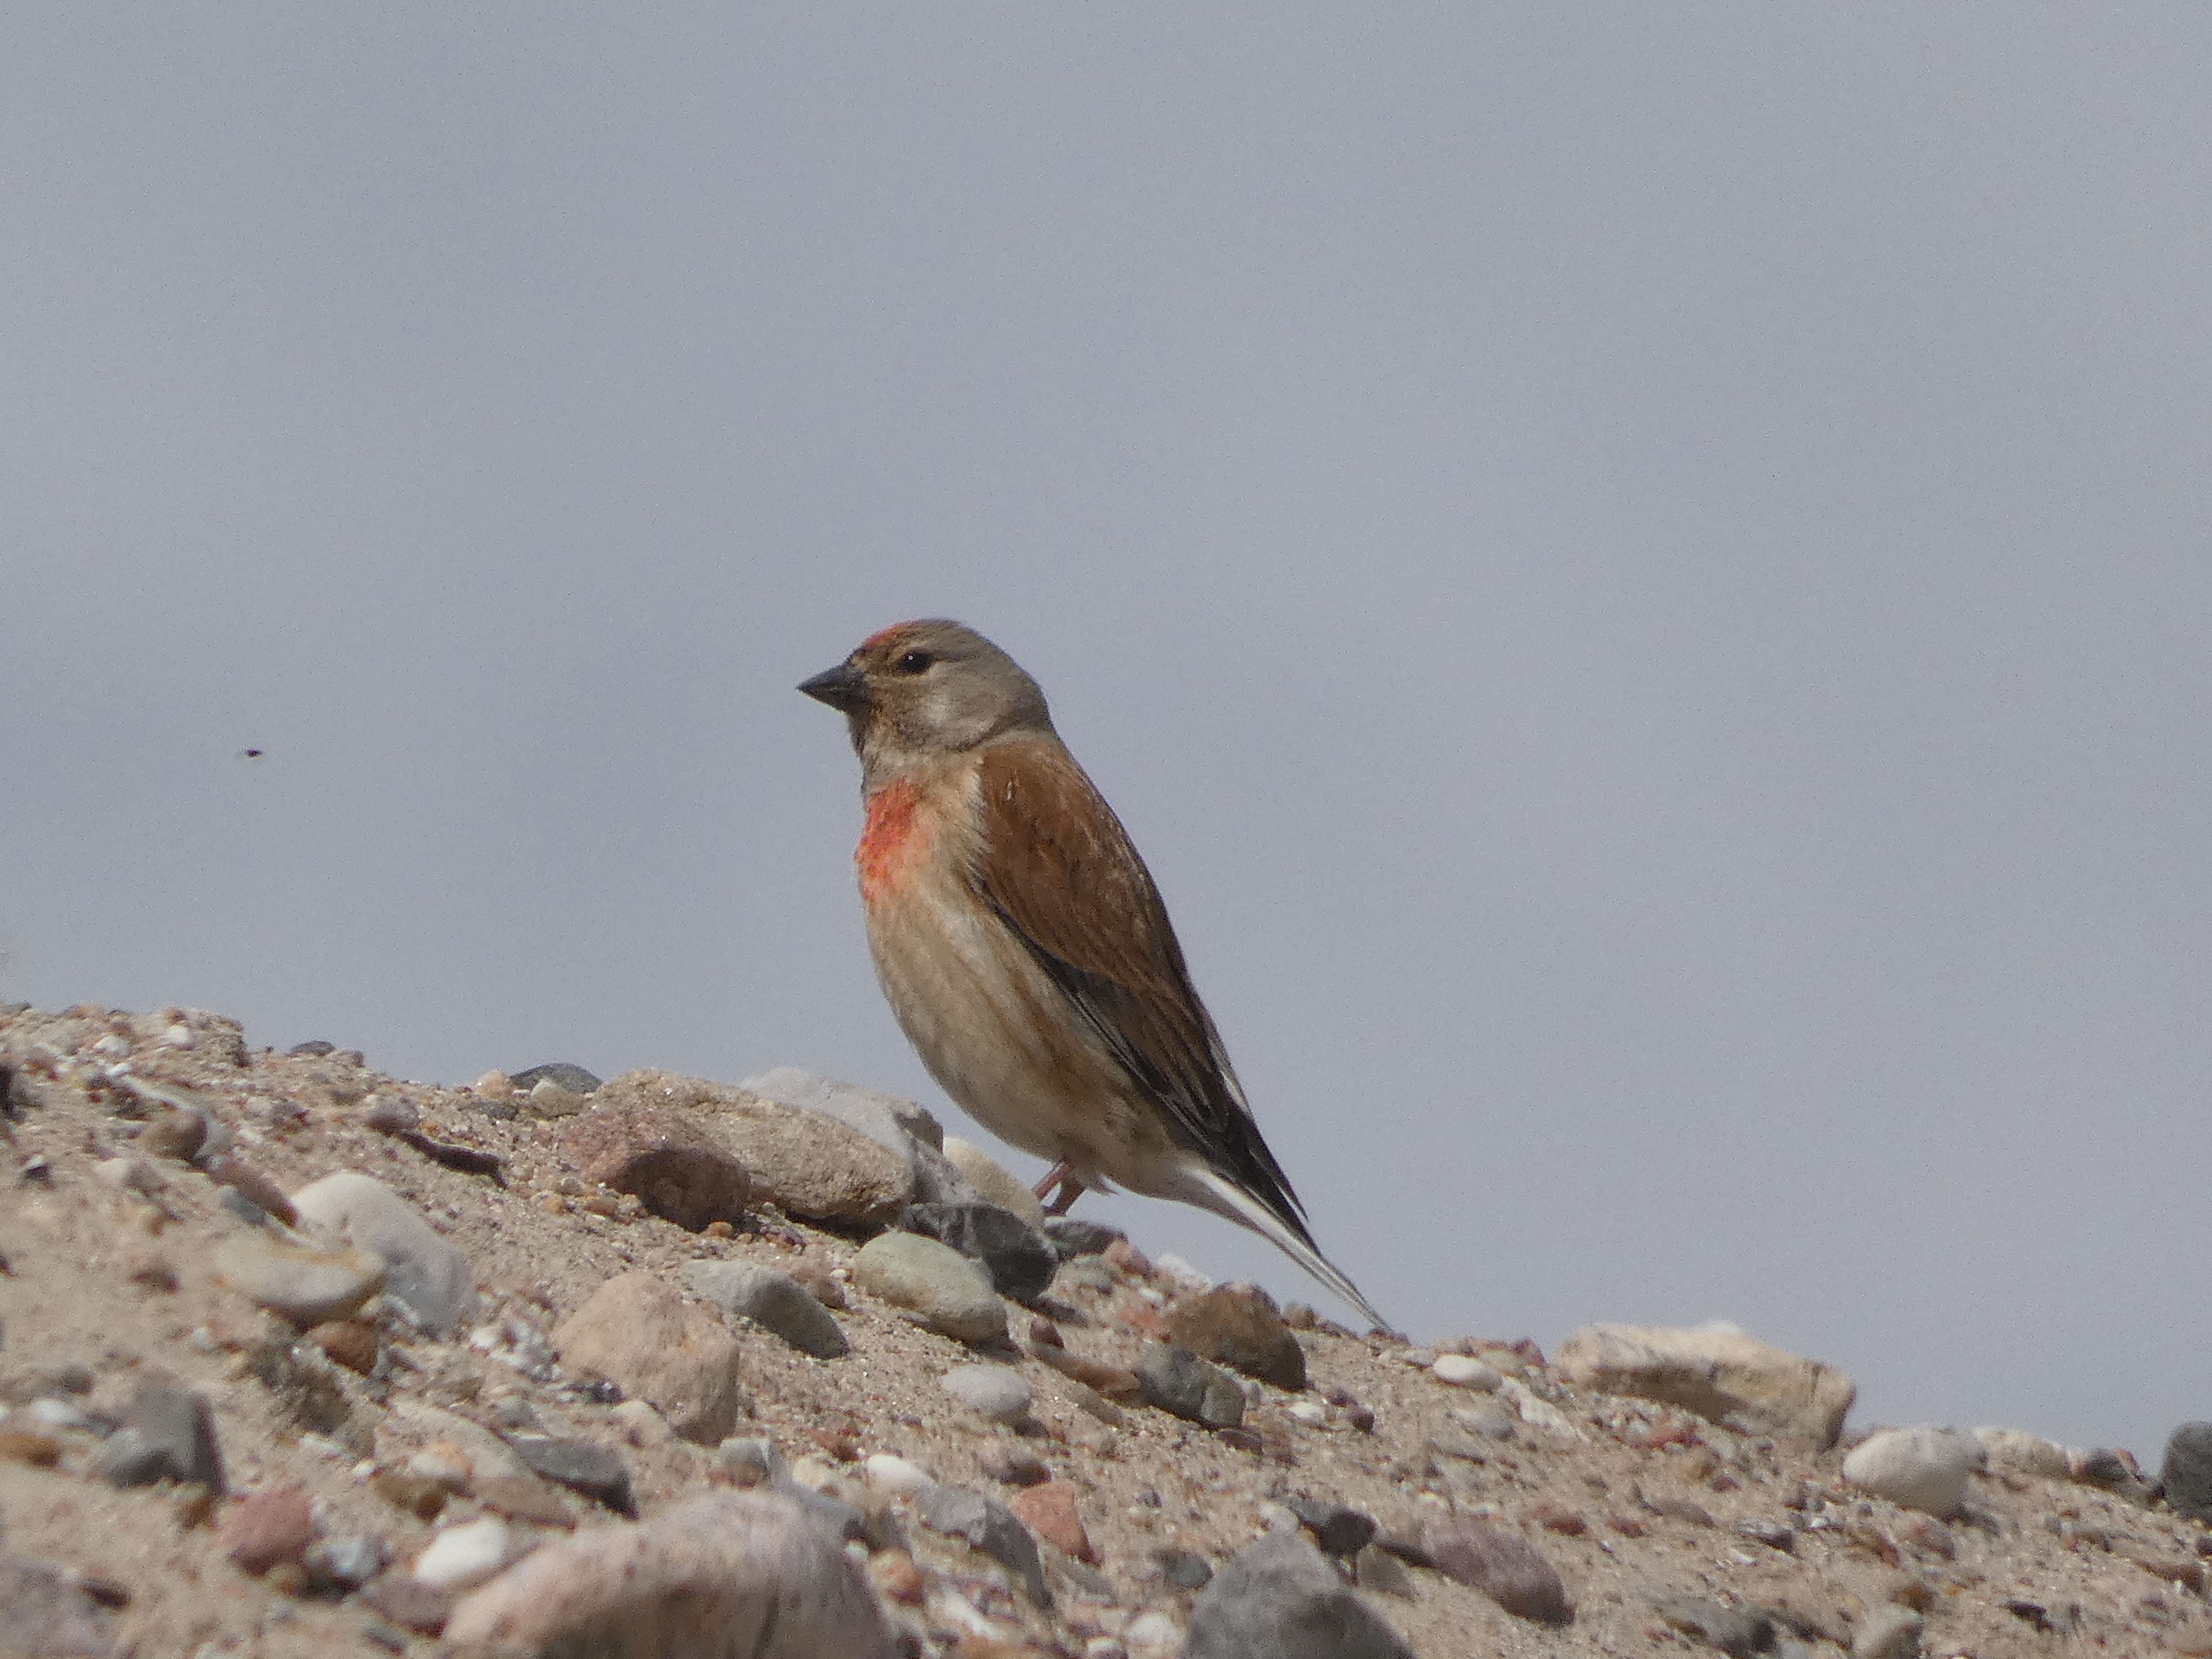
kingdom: Animalia
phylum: Chordata
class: Aves
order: Passeriformes
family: Fringillidae
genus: Linaria
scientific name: Linaria cannabina
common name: Tornirisk
